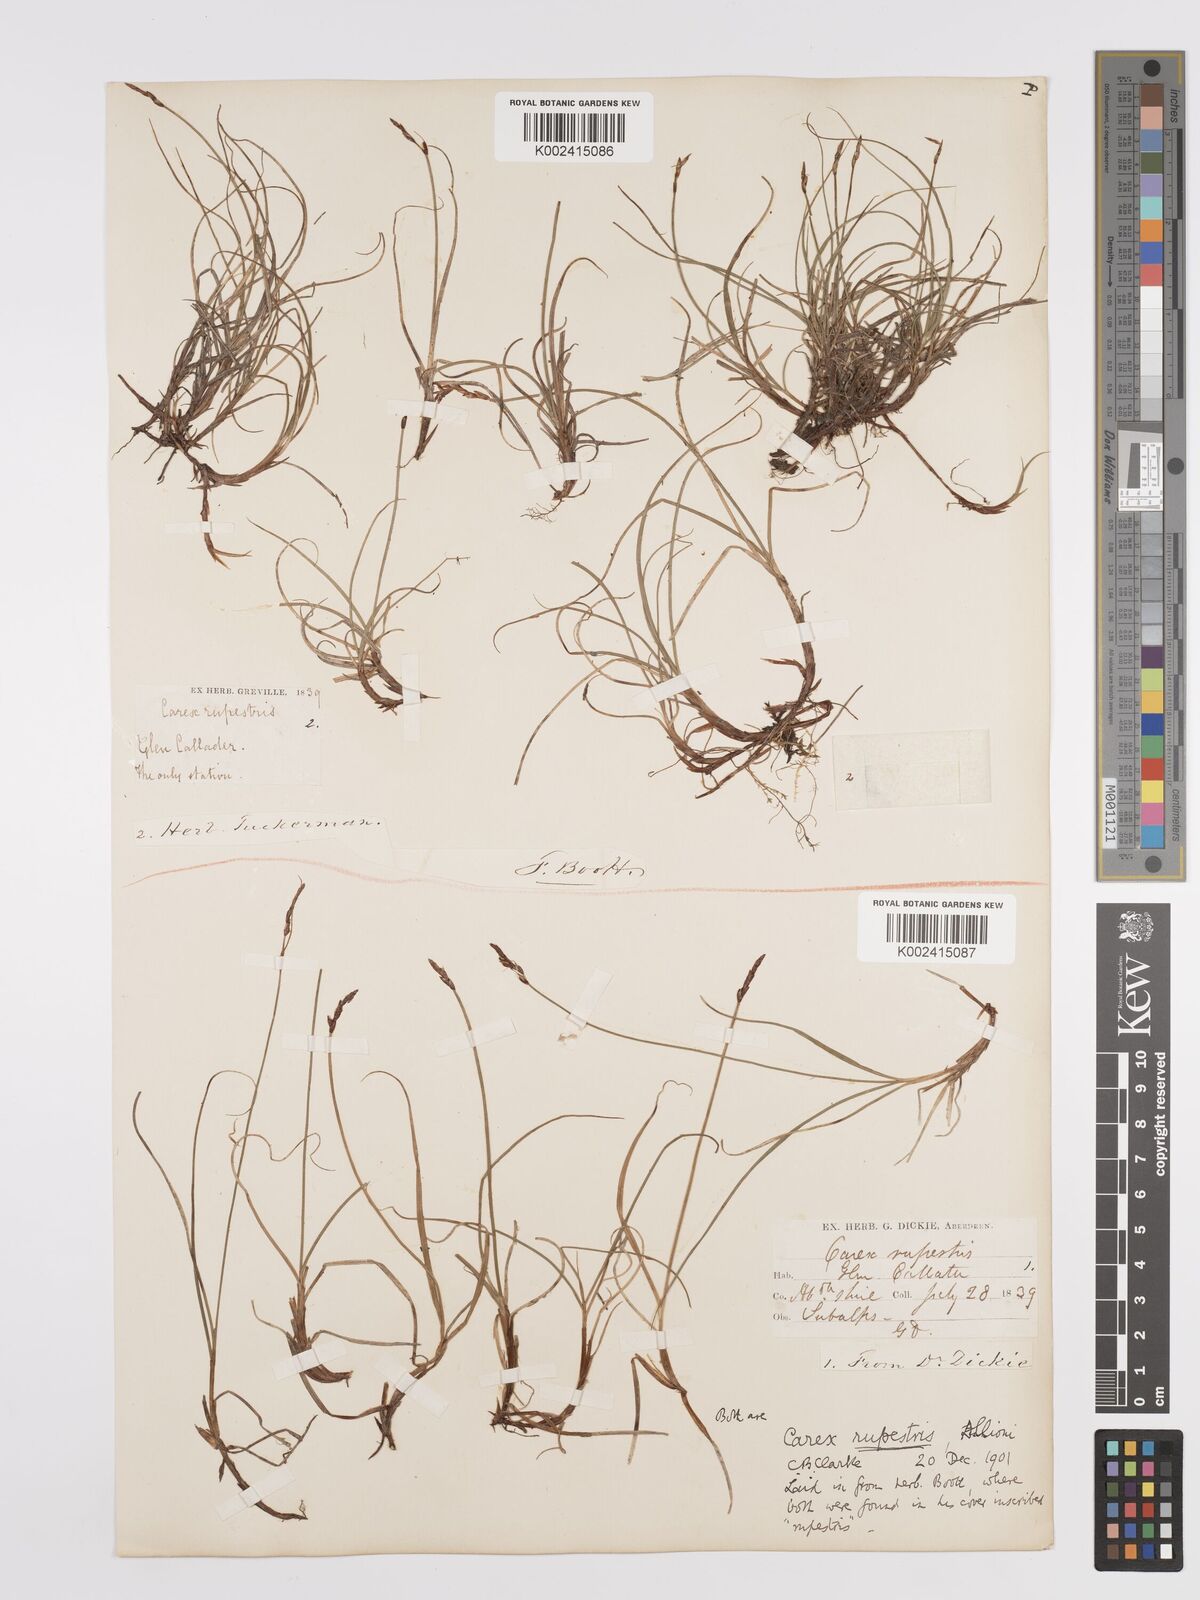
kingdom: Plantae
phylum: Tracheophyta
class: Liliopsida
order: Poales
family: Cyperaceae
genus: Carex
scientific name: Carex rupestris
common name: Rock sedge
